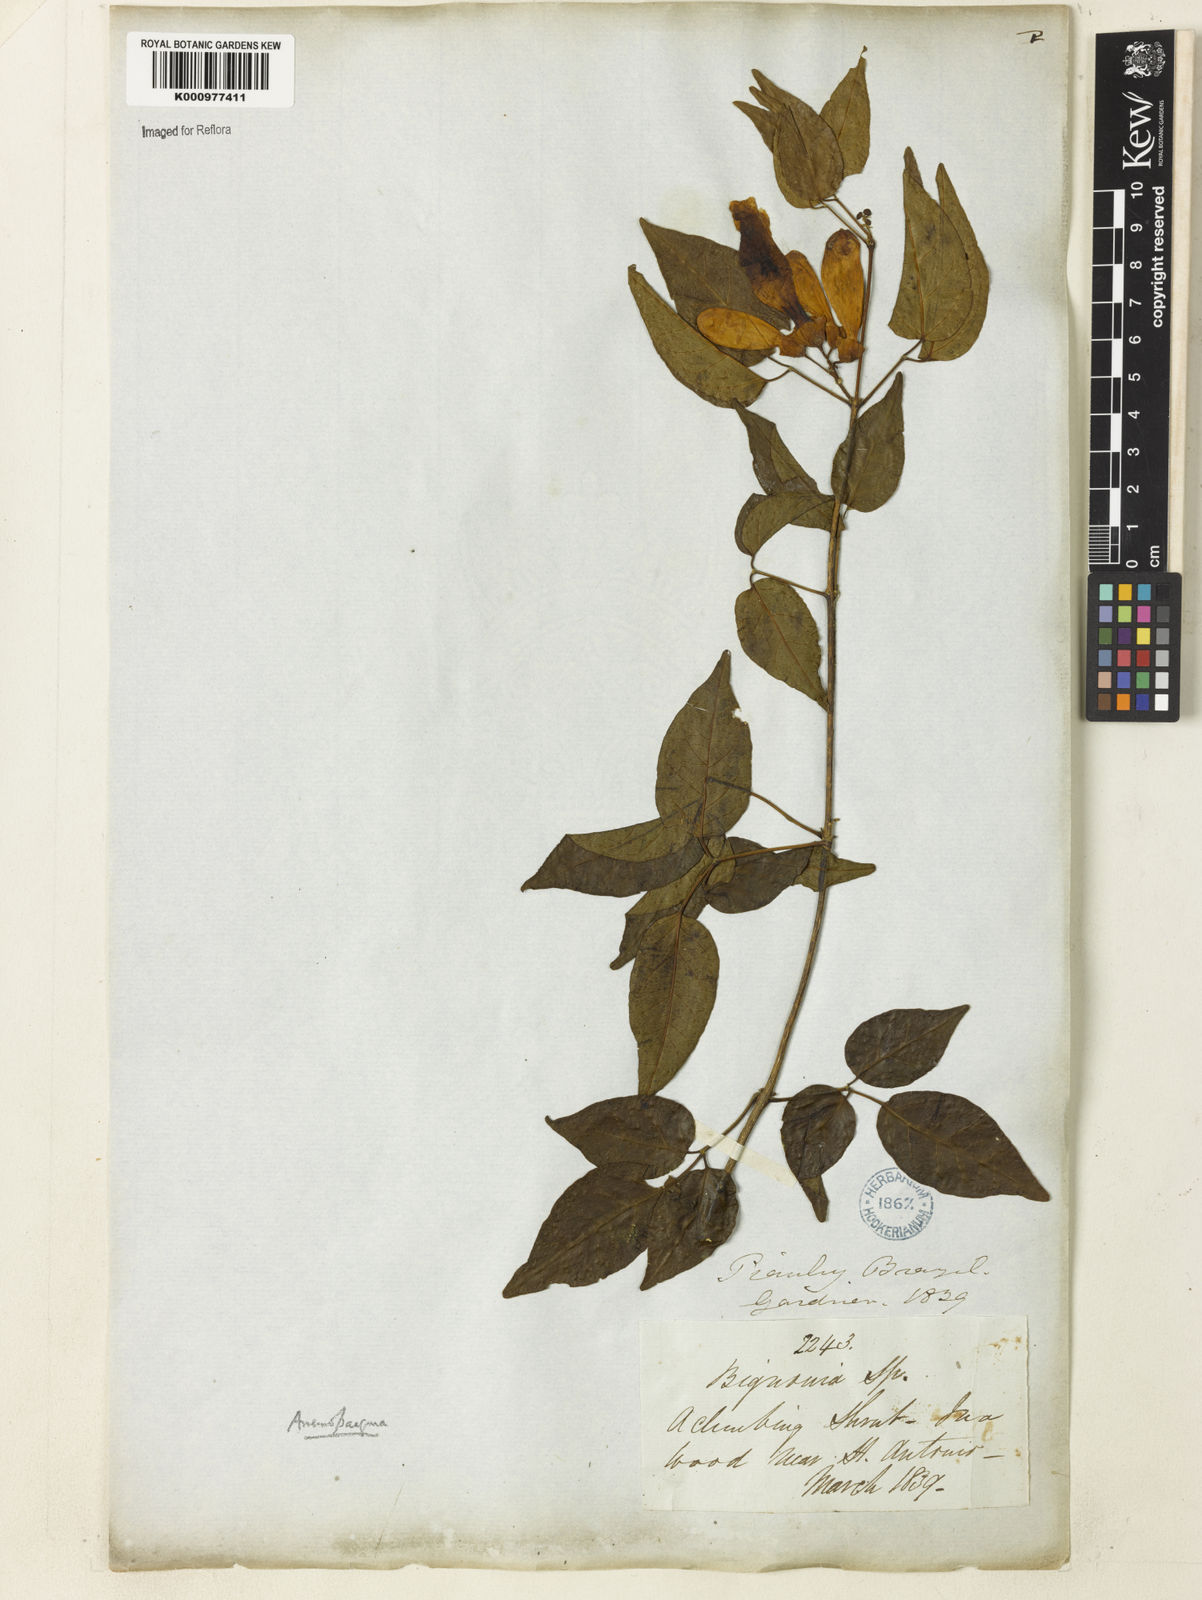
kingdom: Plantae
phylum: Tracheophyta
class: Magnoliopsida
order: Lamiales
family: Bignoniaceae
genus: Anemopaegma
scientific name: Anemopaegma gracile
